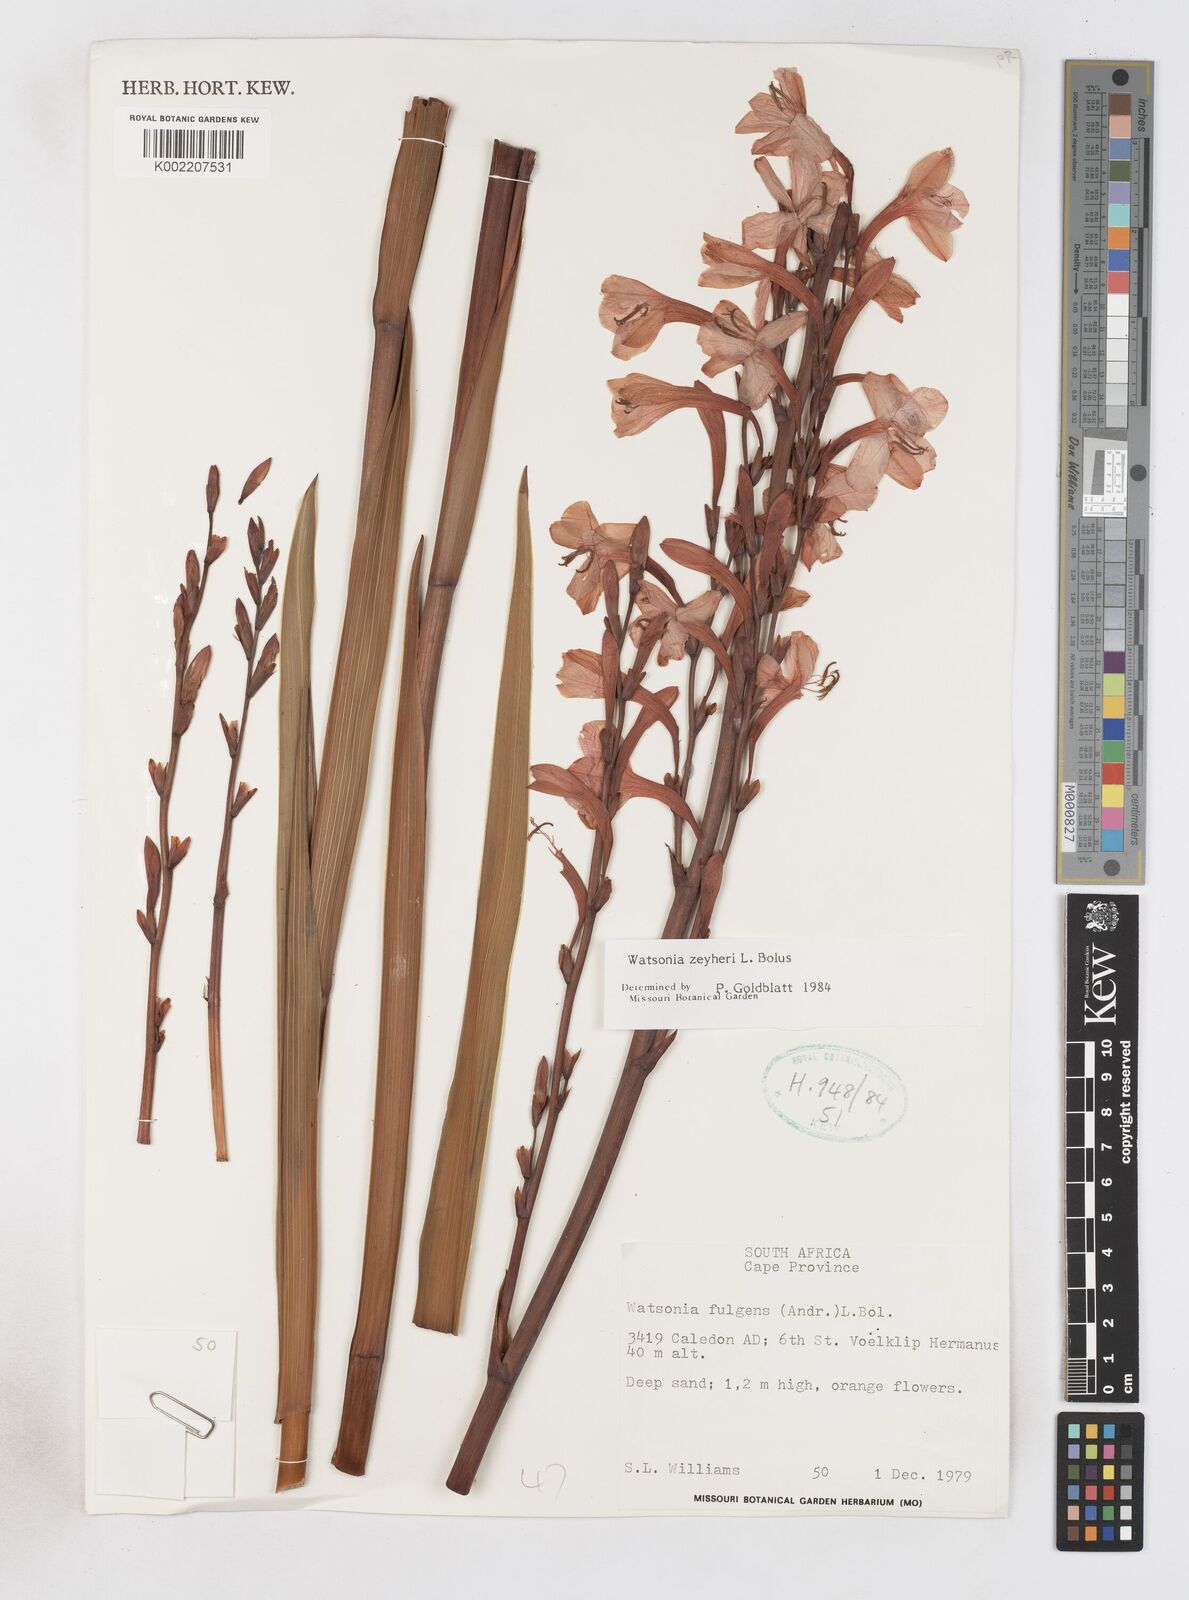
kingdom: Plantae
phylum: Tracheophyta
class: Liliopsida
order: Asparagales
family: Iridaceae
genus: Watsonia
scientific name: Watsonia zeyheri
